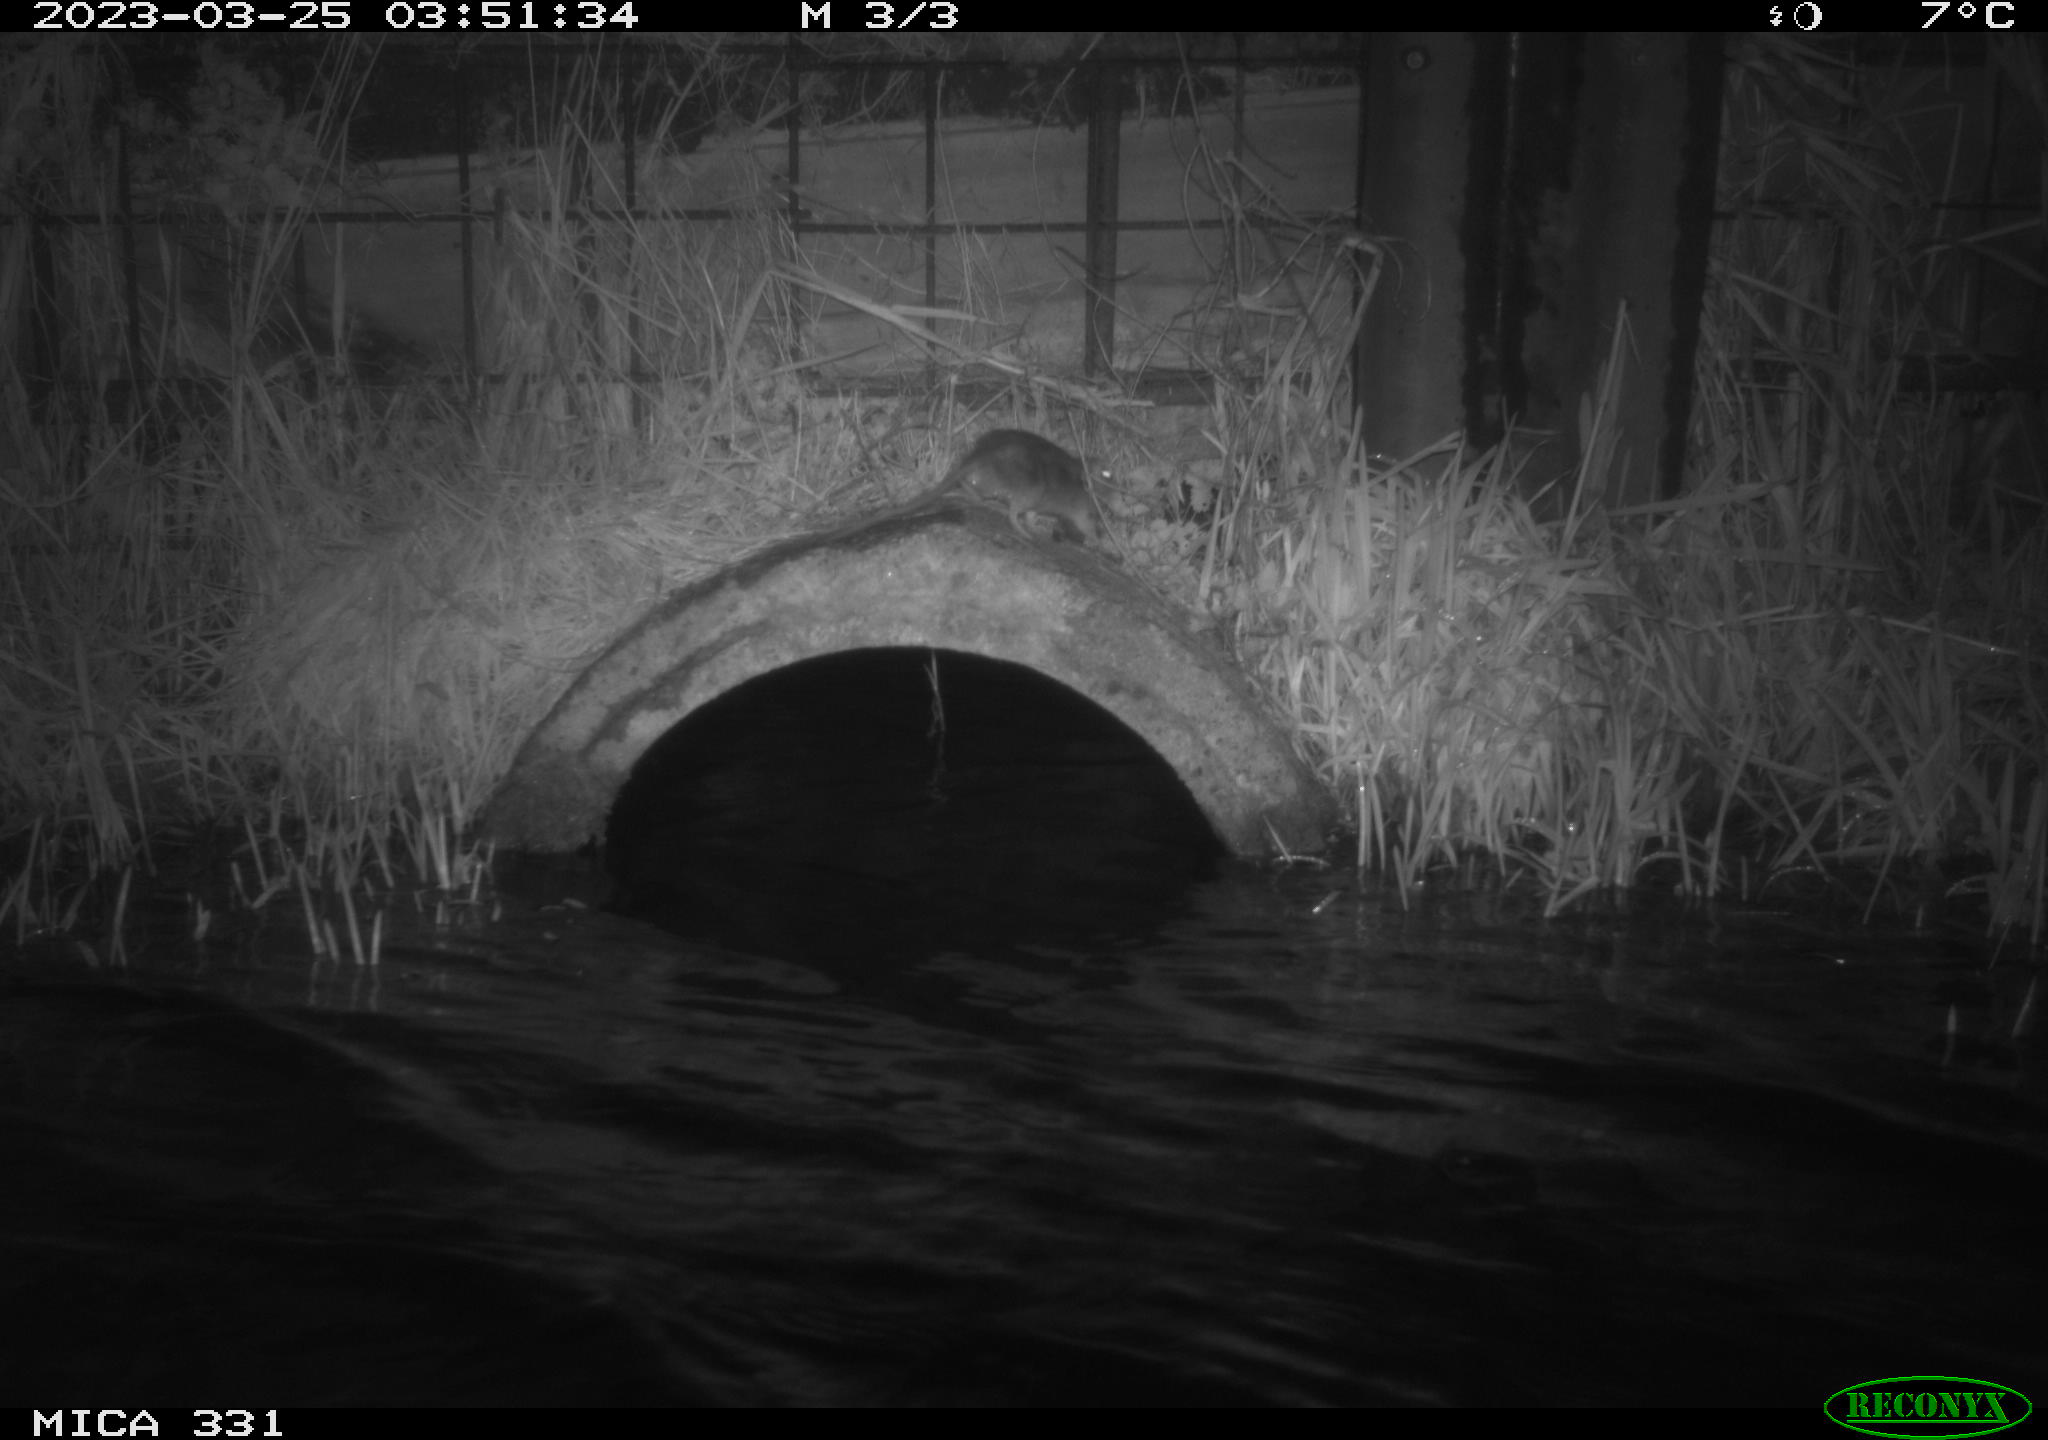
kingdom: Animalia
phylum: Chordata
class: Mammalia
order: Rodentia
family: Muridae
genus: Rattus
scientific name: Rattus norvegicus
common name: Brown rat
